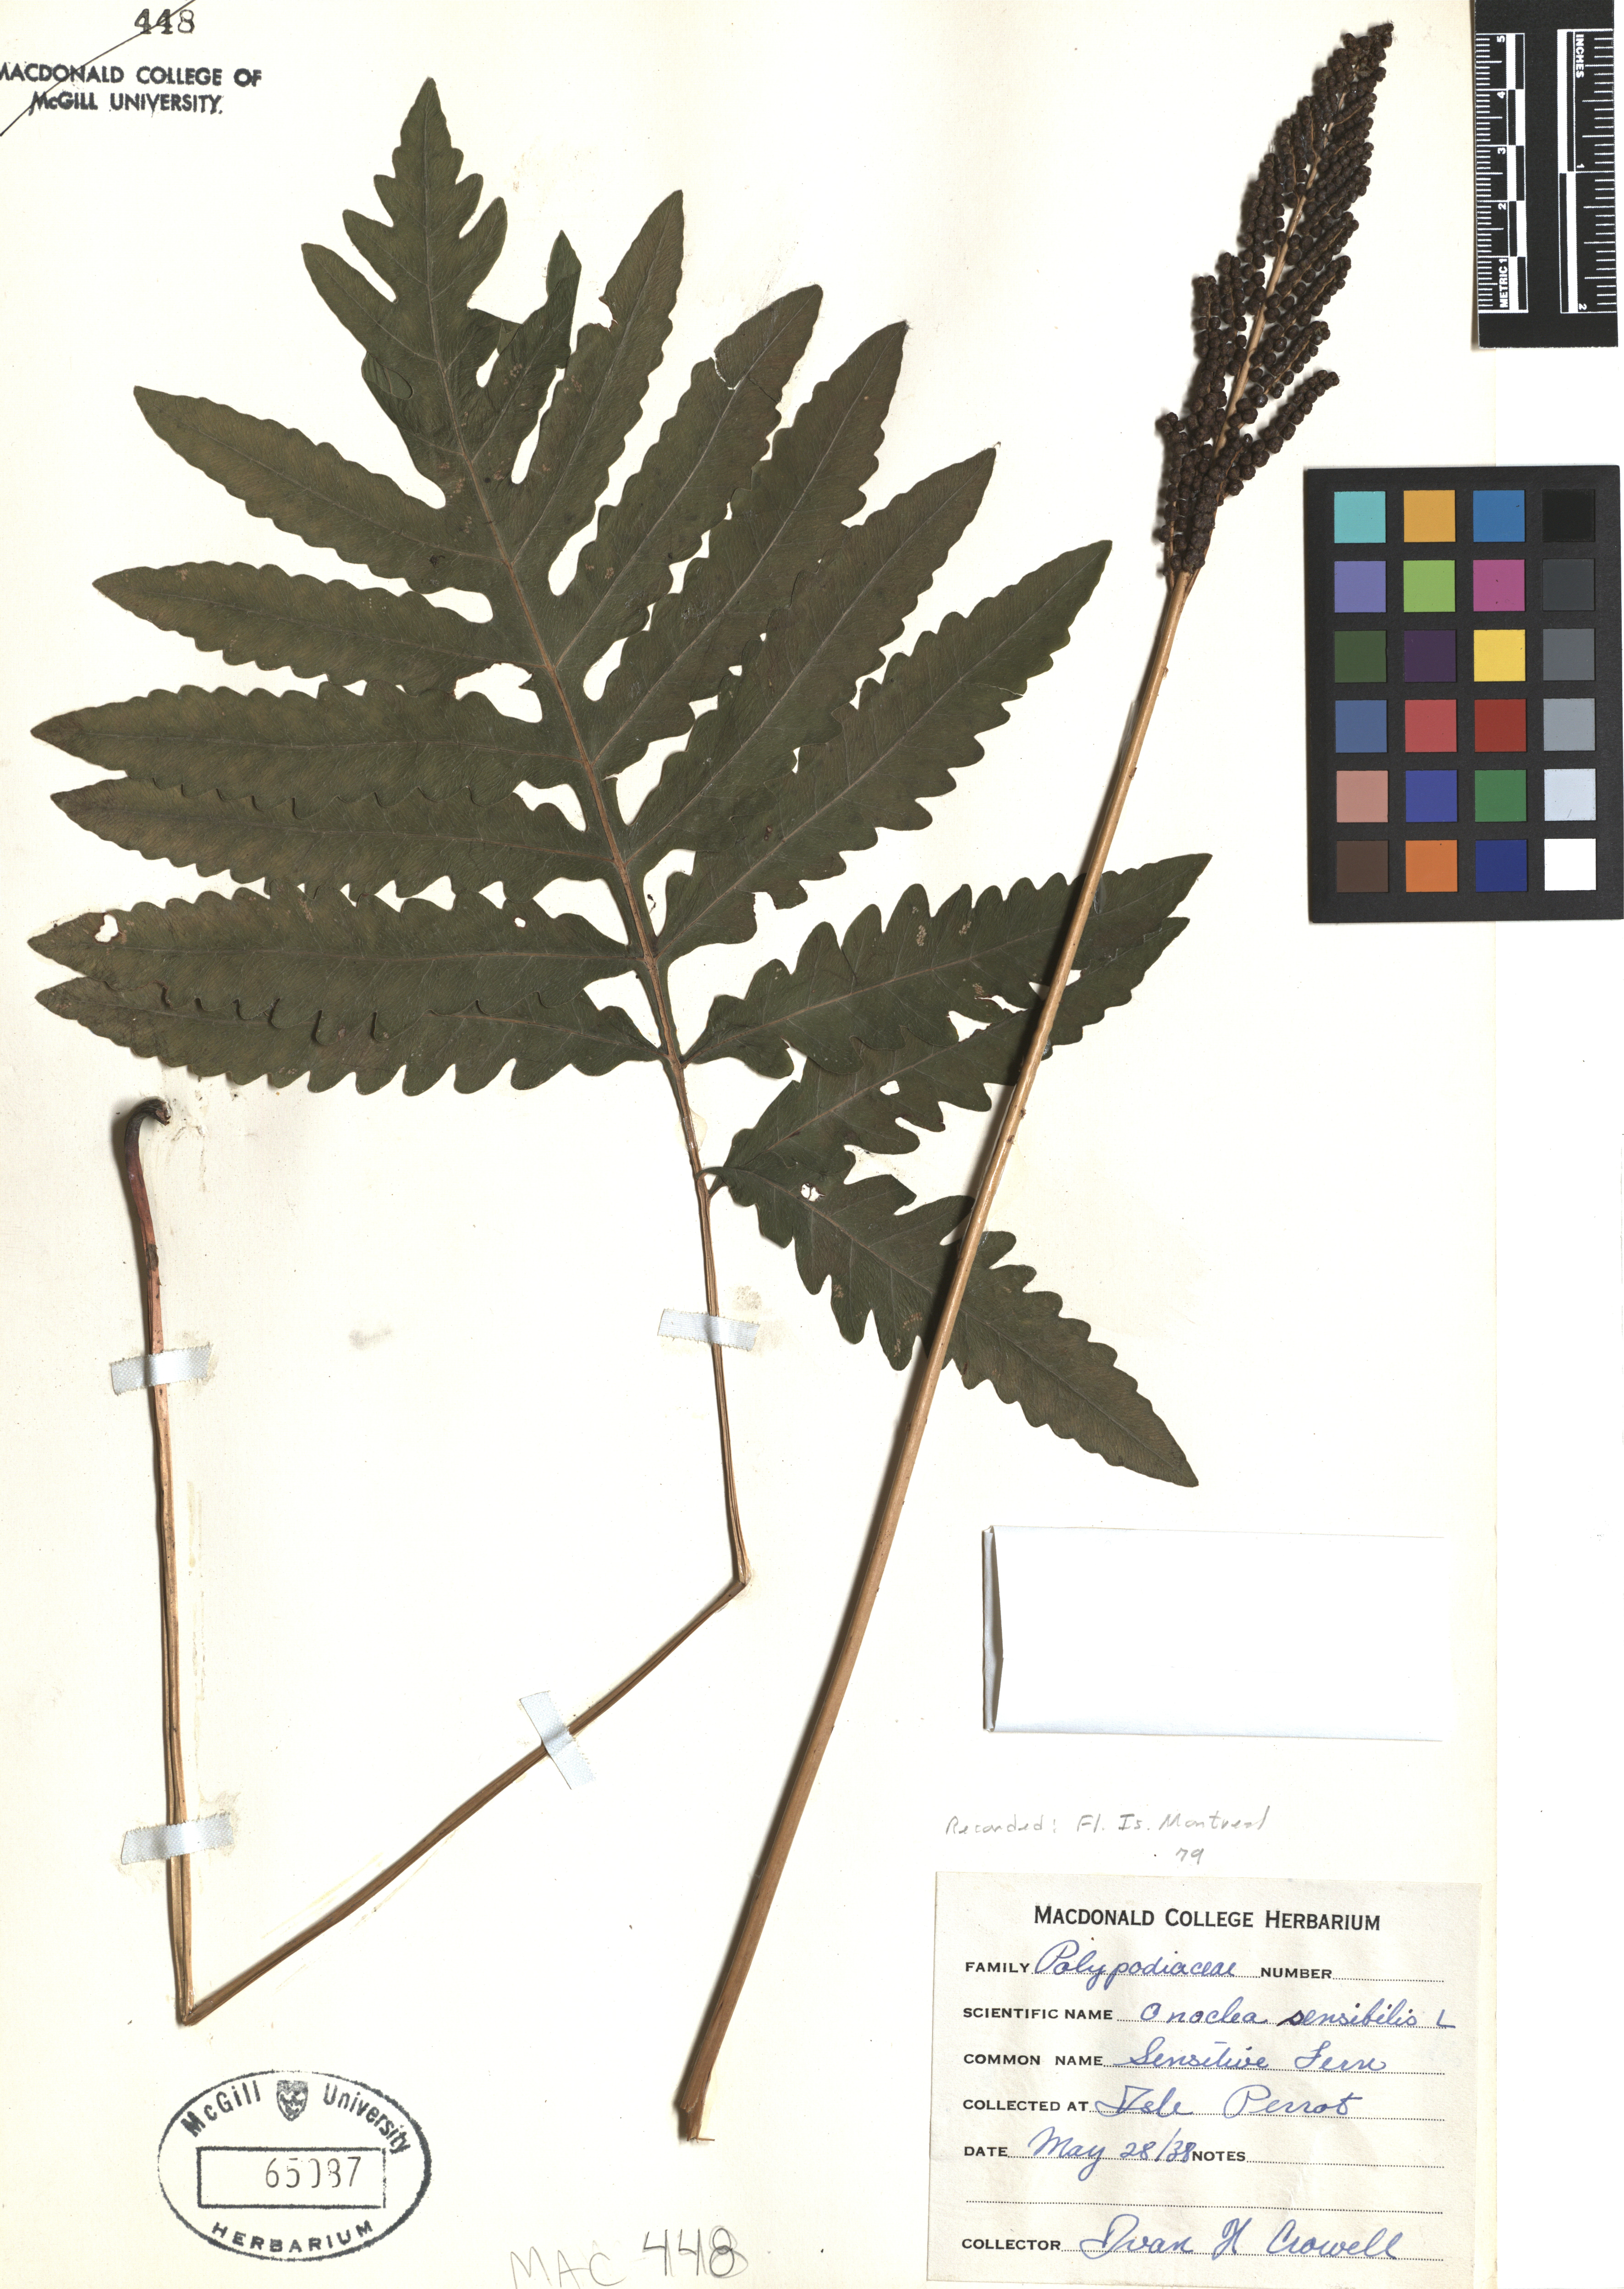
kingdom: Plantae
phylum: Tracheophyta
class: Polypodiopsida
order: Polypodiales
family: Onocleaceae
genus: Onoclea
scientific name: Onoclea sensibilis
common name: Sensitive fern
